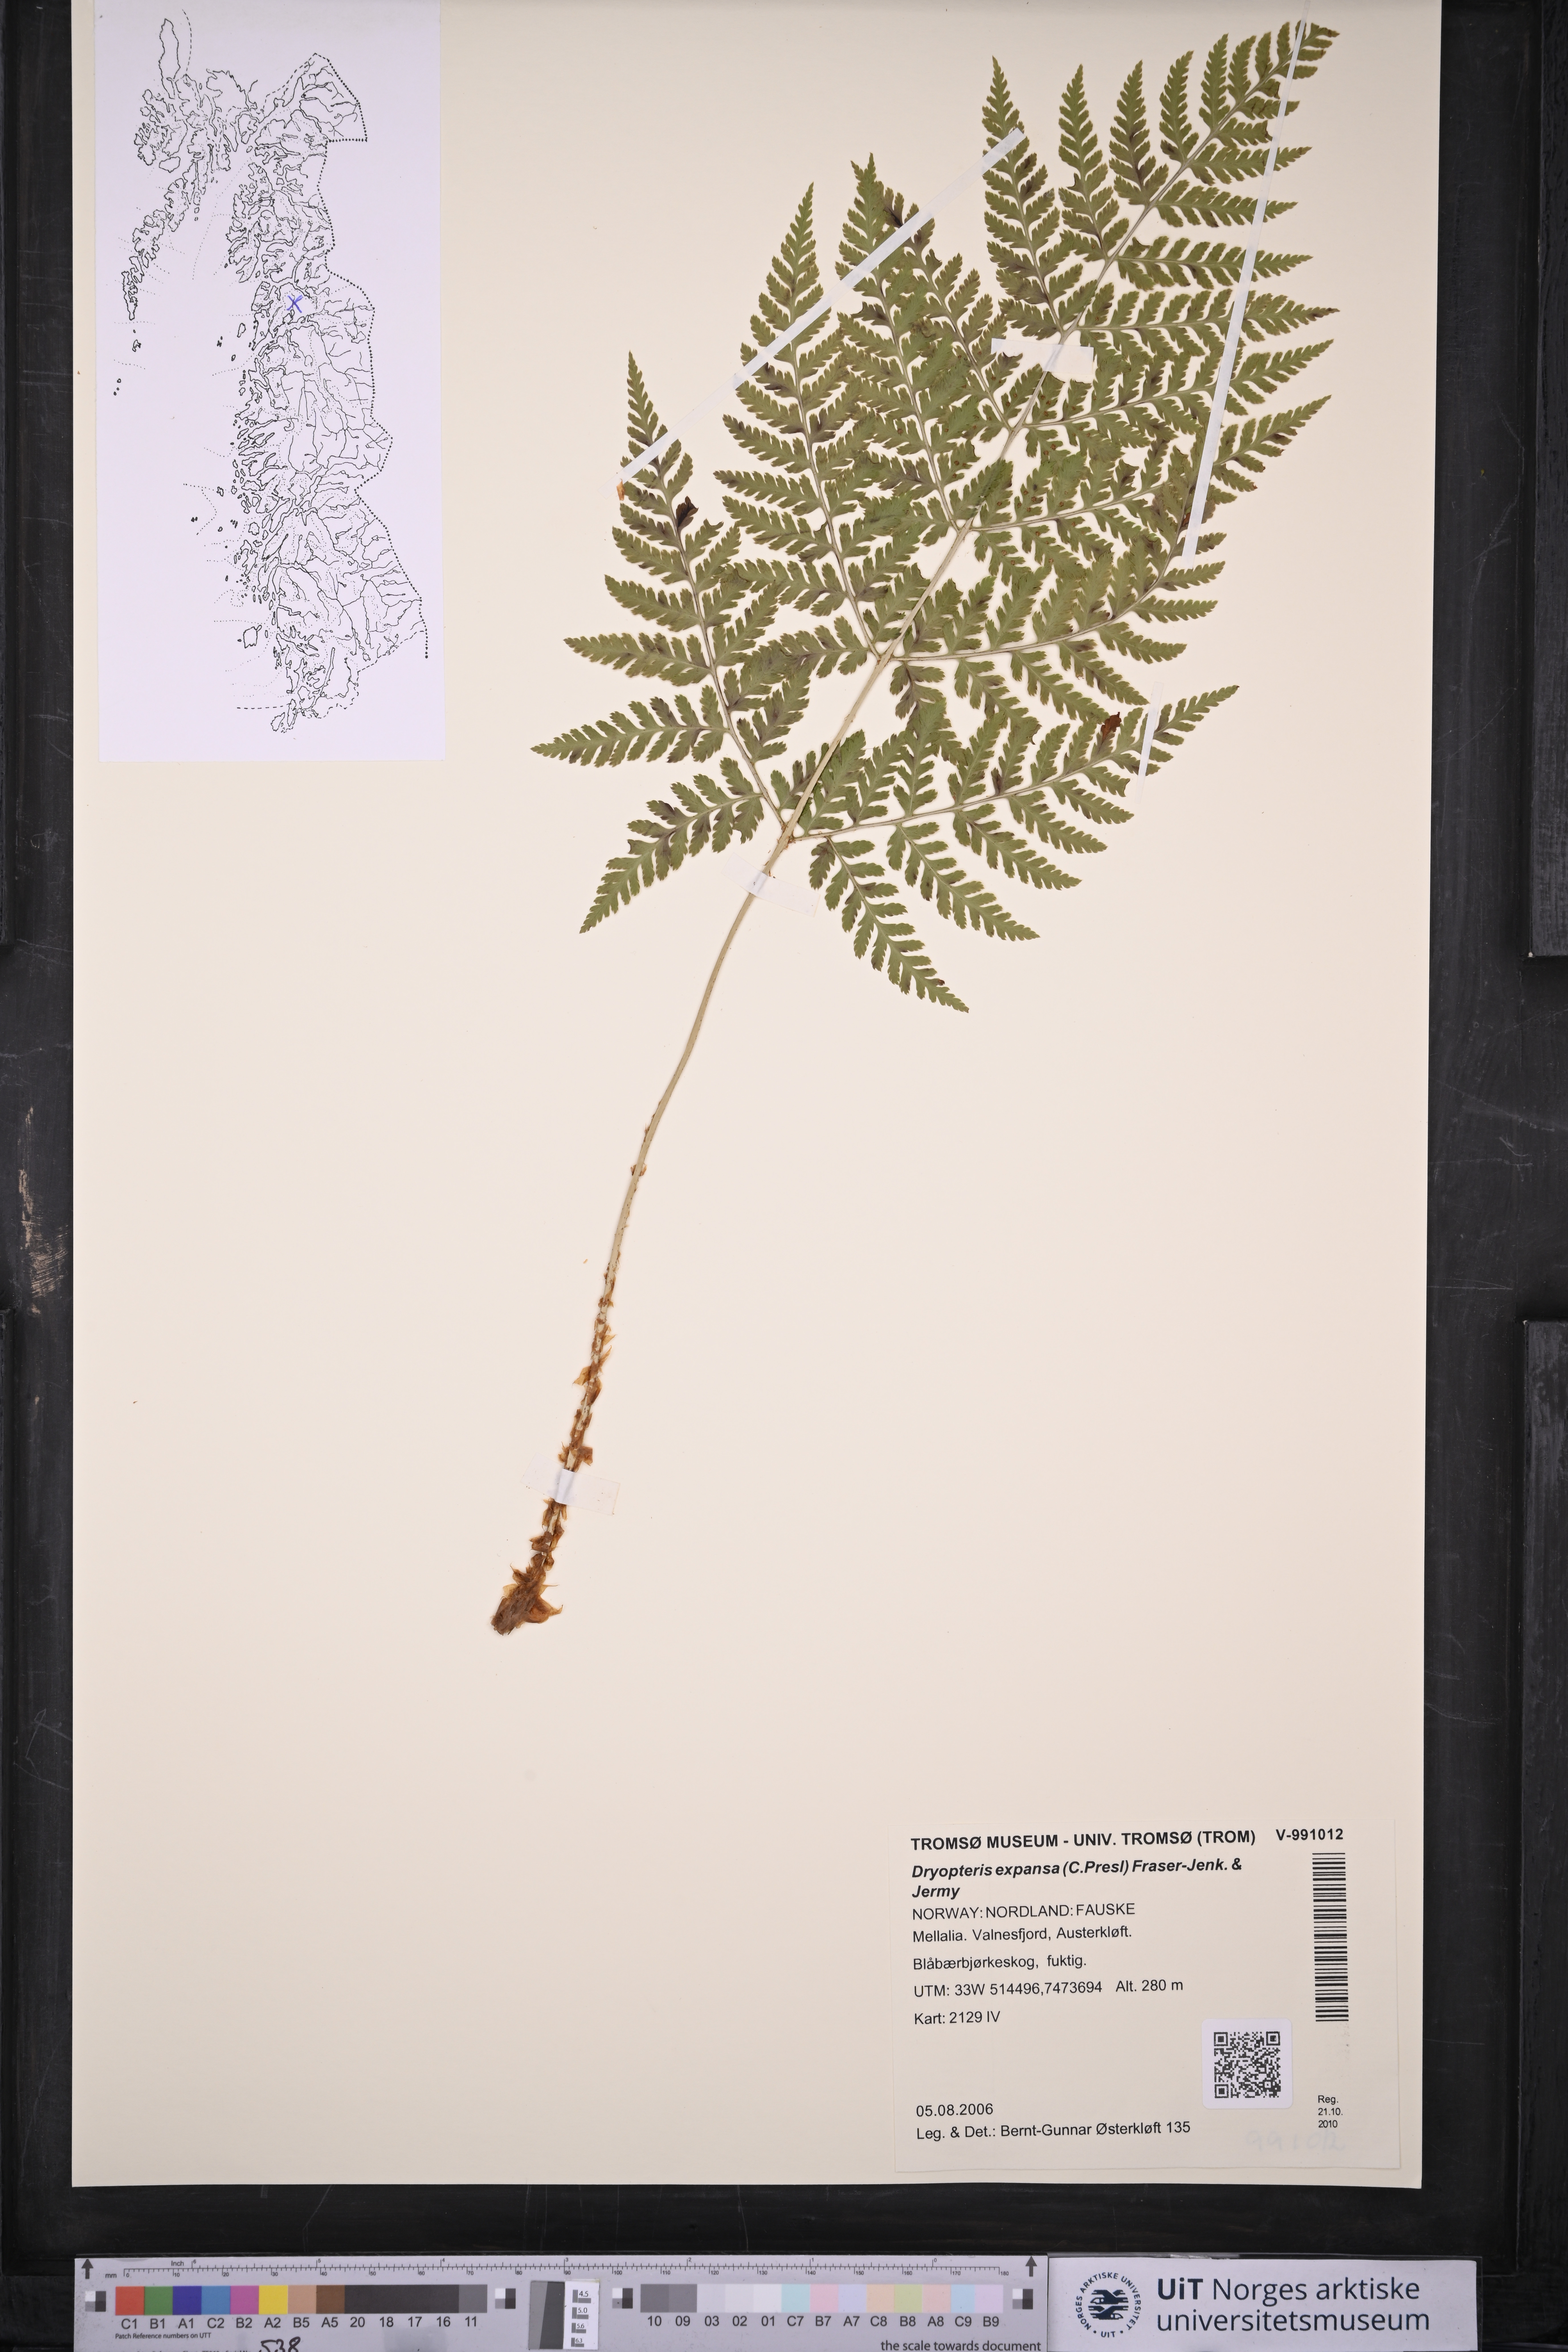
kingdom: Plantae
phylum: Tracheophyta
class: Polypodiopsida
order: Polypodiales
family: Dryopteridaceae
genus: Dryopteris
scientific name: Dryopteris expansa
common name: Northern buckler fern
